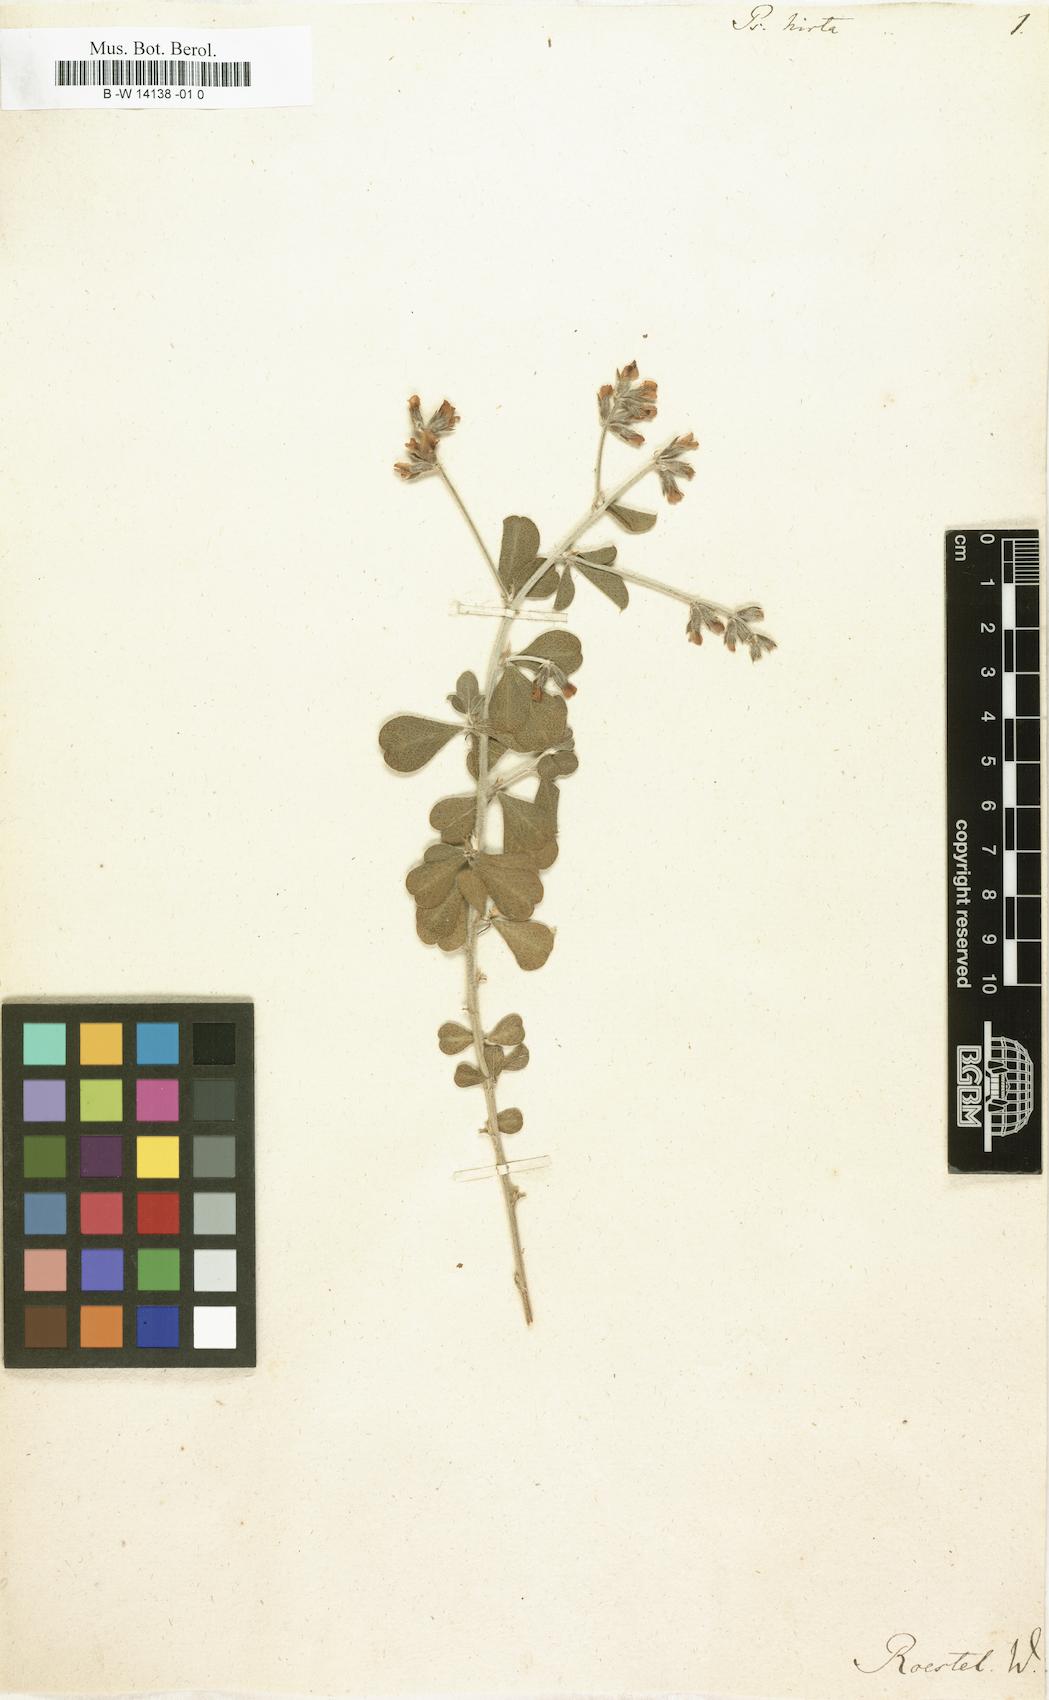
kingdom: Plantae
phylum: Tracheophyta
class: Magnoliopsida
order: Fabales
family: Fabaceae
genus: Psoralea
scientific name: Psoralea hirta
